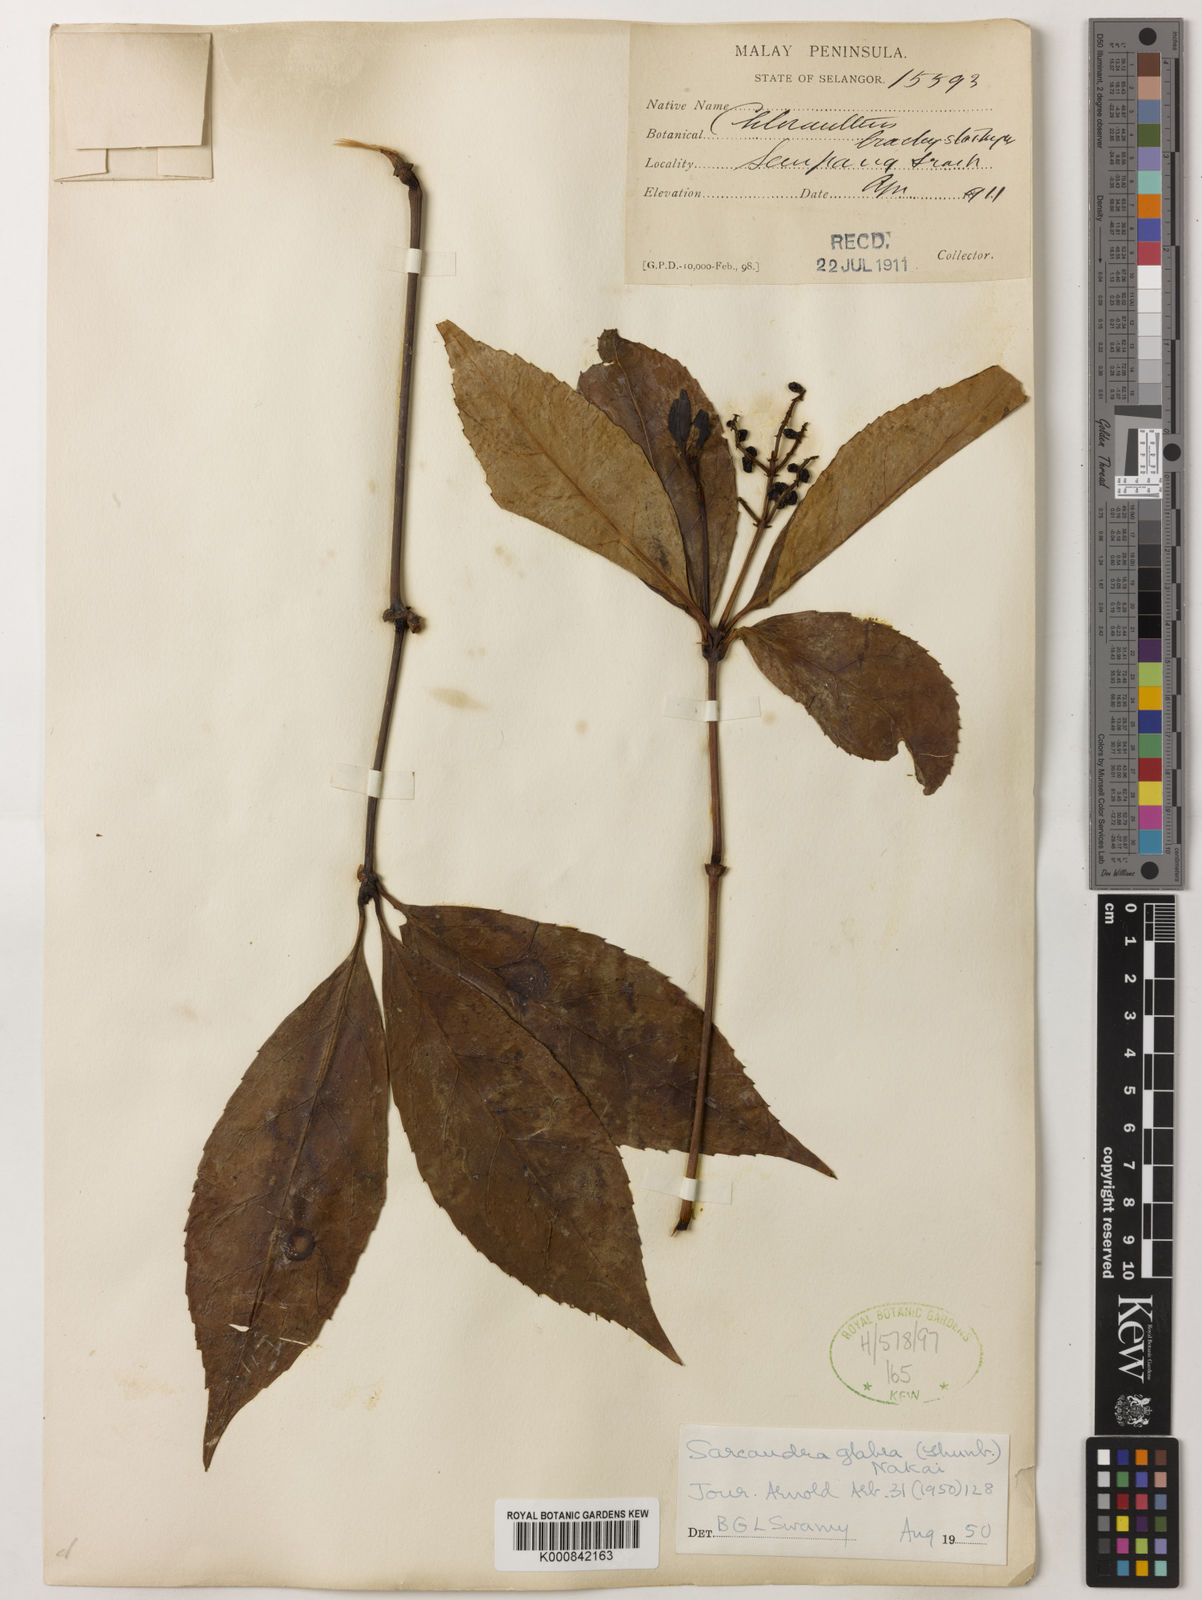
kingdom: Plantae
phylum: Tracheophyta
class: Magnoliopsida
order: Chloranthales
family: Chloranthaceae
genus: Sarcandra
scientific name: Sarcandra glabra
